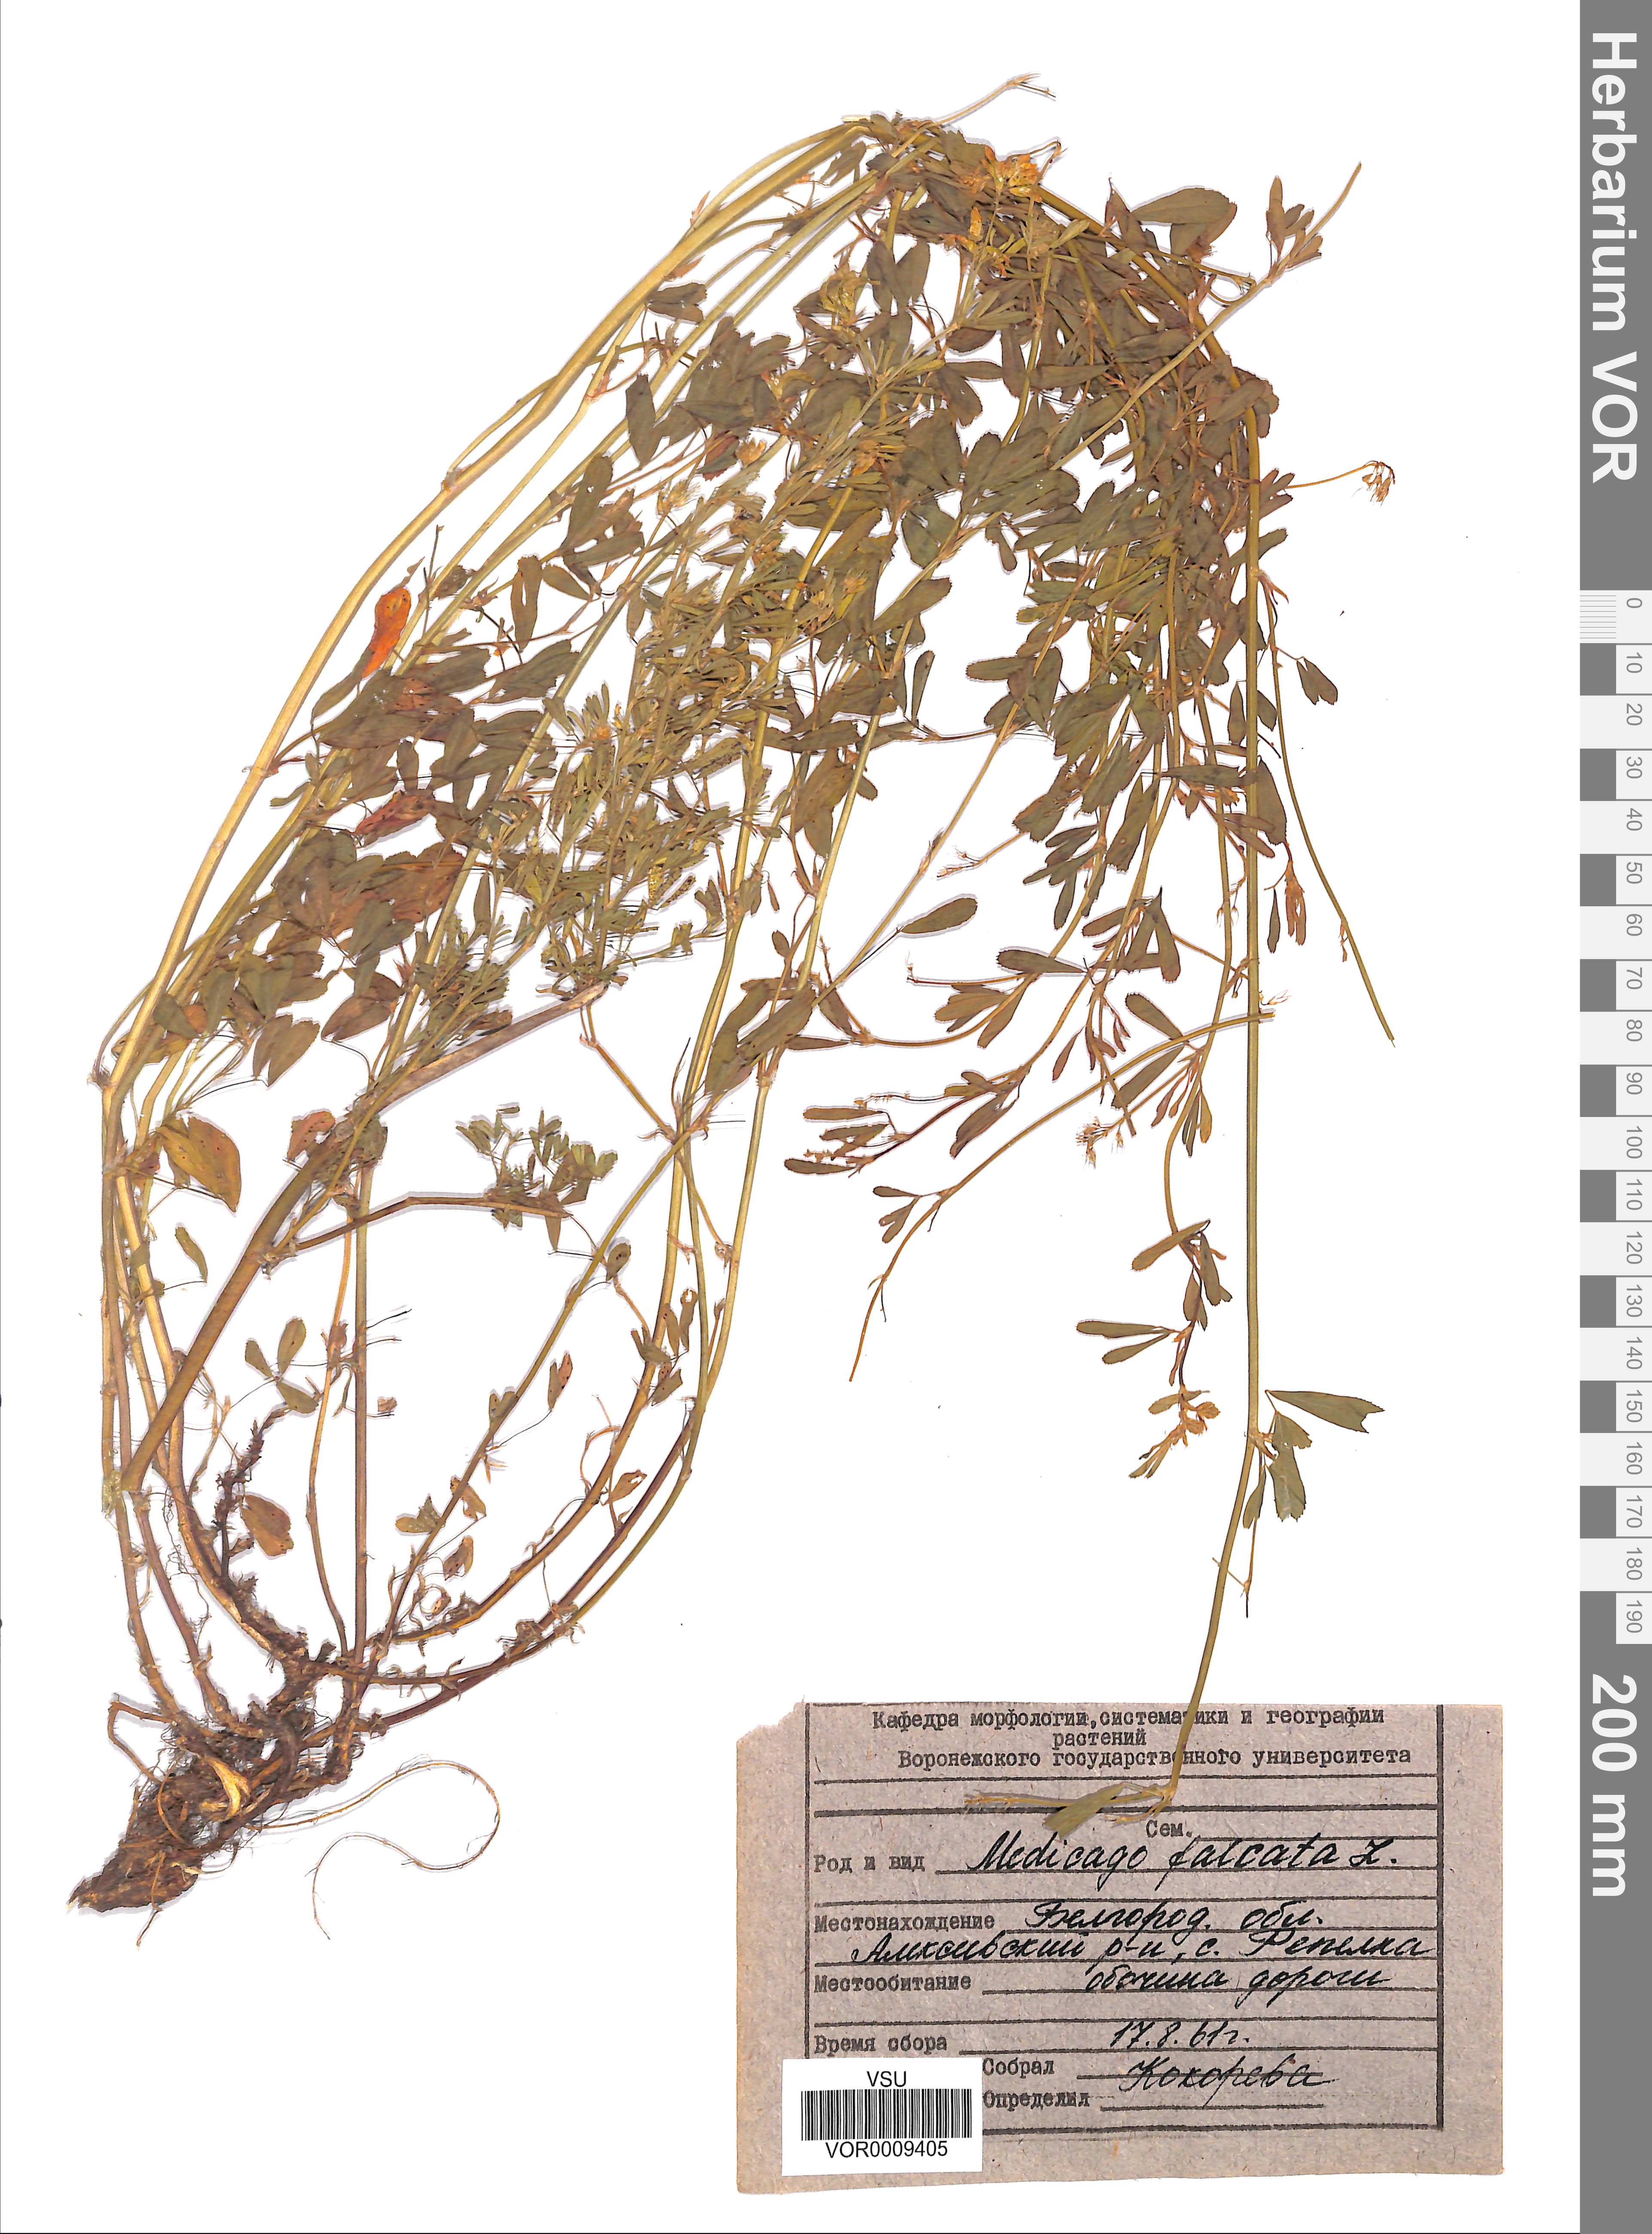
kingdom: Plantae
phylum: Tracheophyta
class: Magnoliopsida
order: Fabales
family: Fabaceae
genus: Medicago
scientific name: Medicago falcata
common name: Sickle medick
